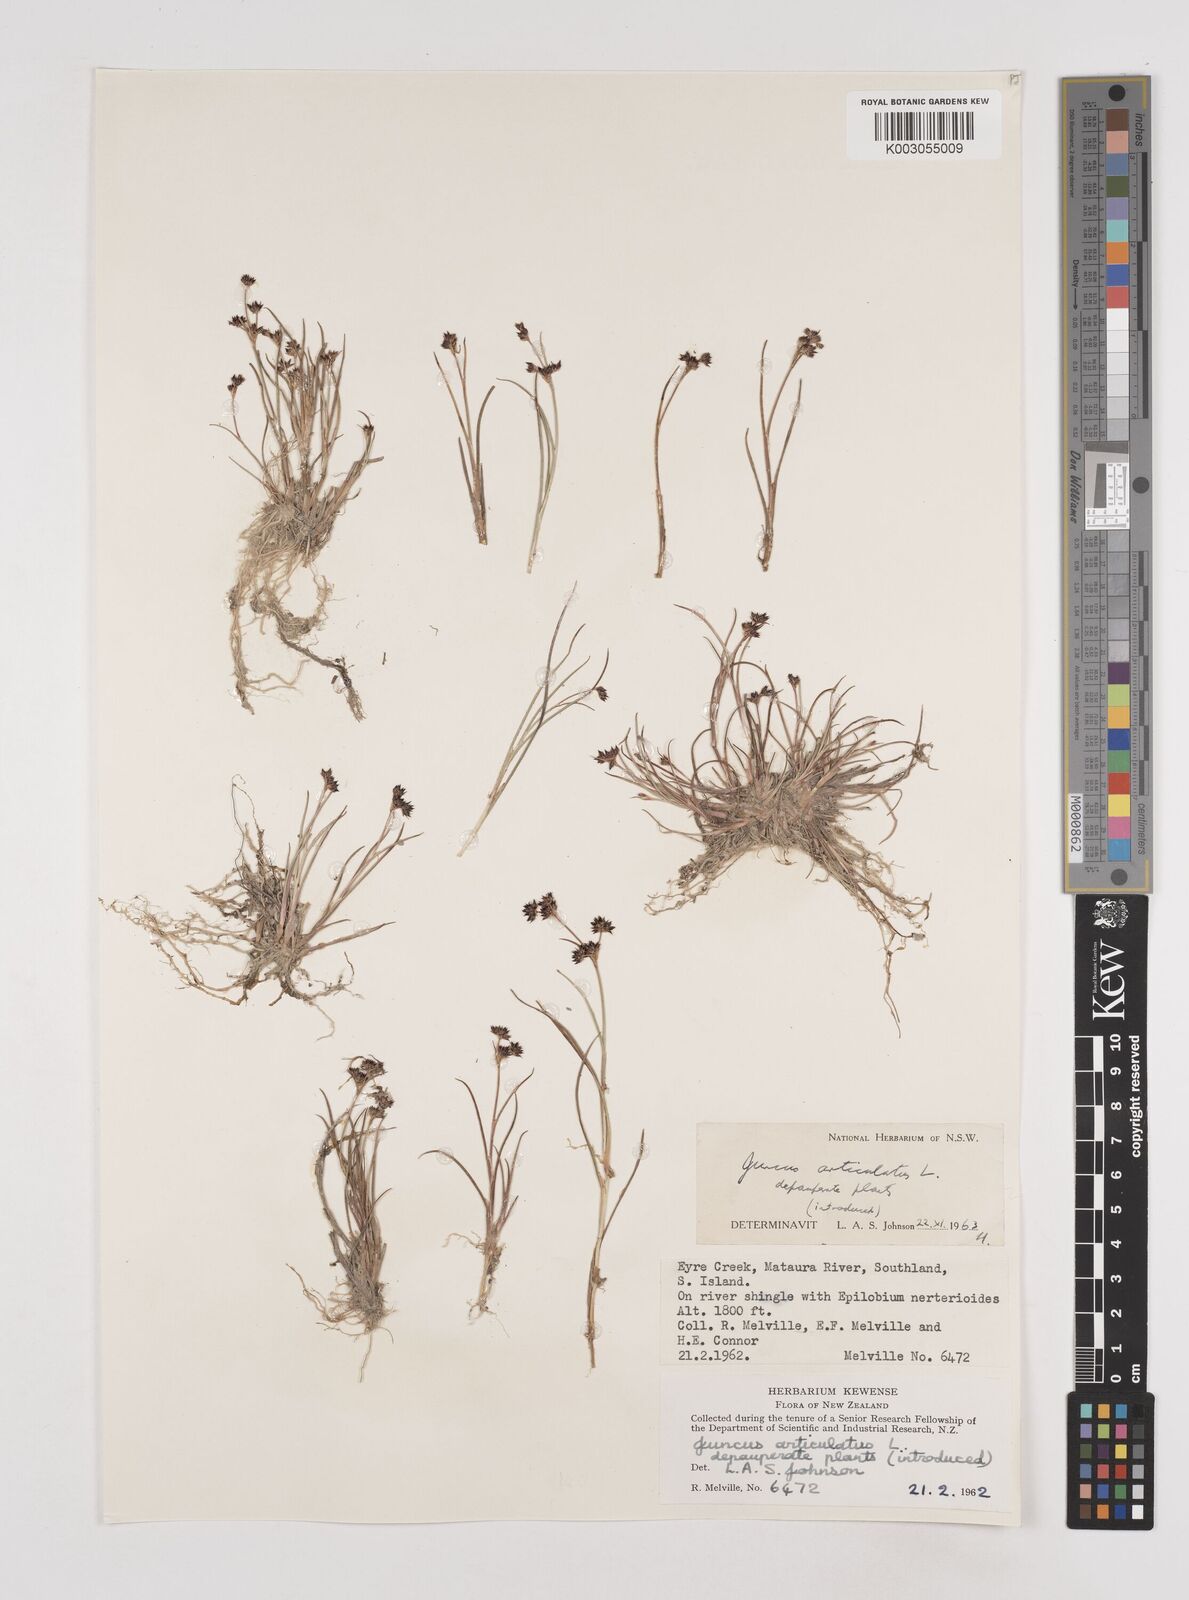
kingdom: Plantae
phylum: Tracheophyta
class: Liliopsida
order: Poales
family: Juncaceae
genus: Juncus
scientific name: Juncus articulatus
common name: Jointed rush
